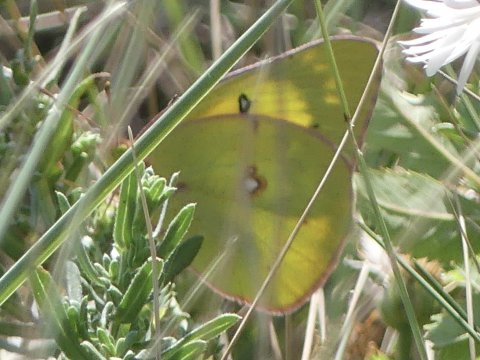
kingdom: Animalia
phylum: Arthropoda
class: Insecta
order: Lepidoptera
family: Pieridae
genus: Colias
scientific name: Colias philodice
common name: Clouded Sulphur
